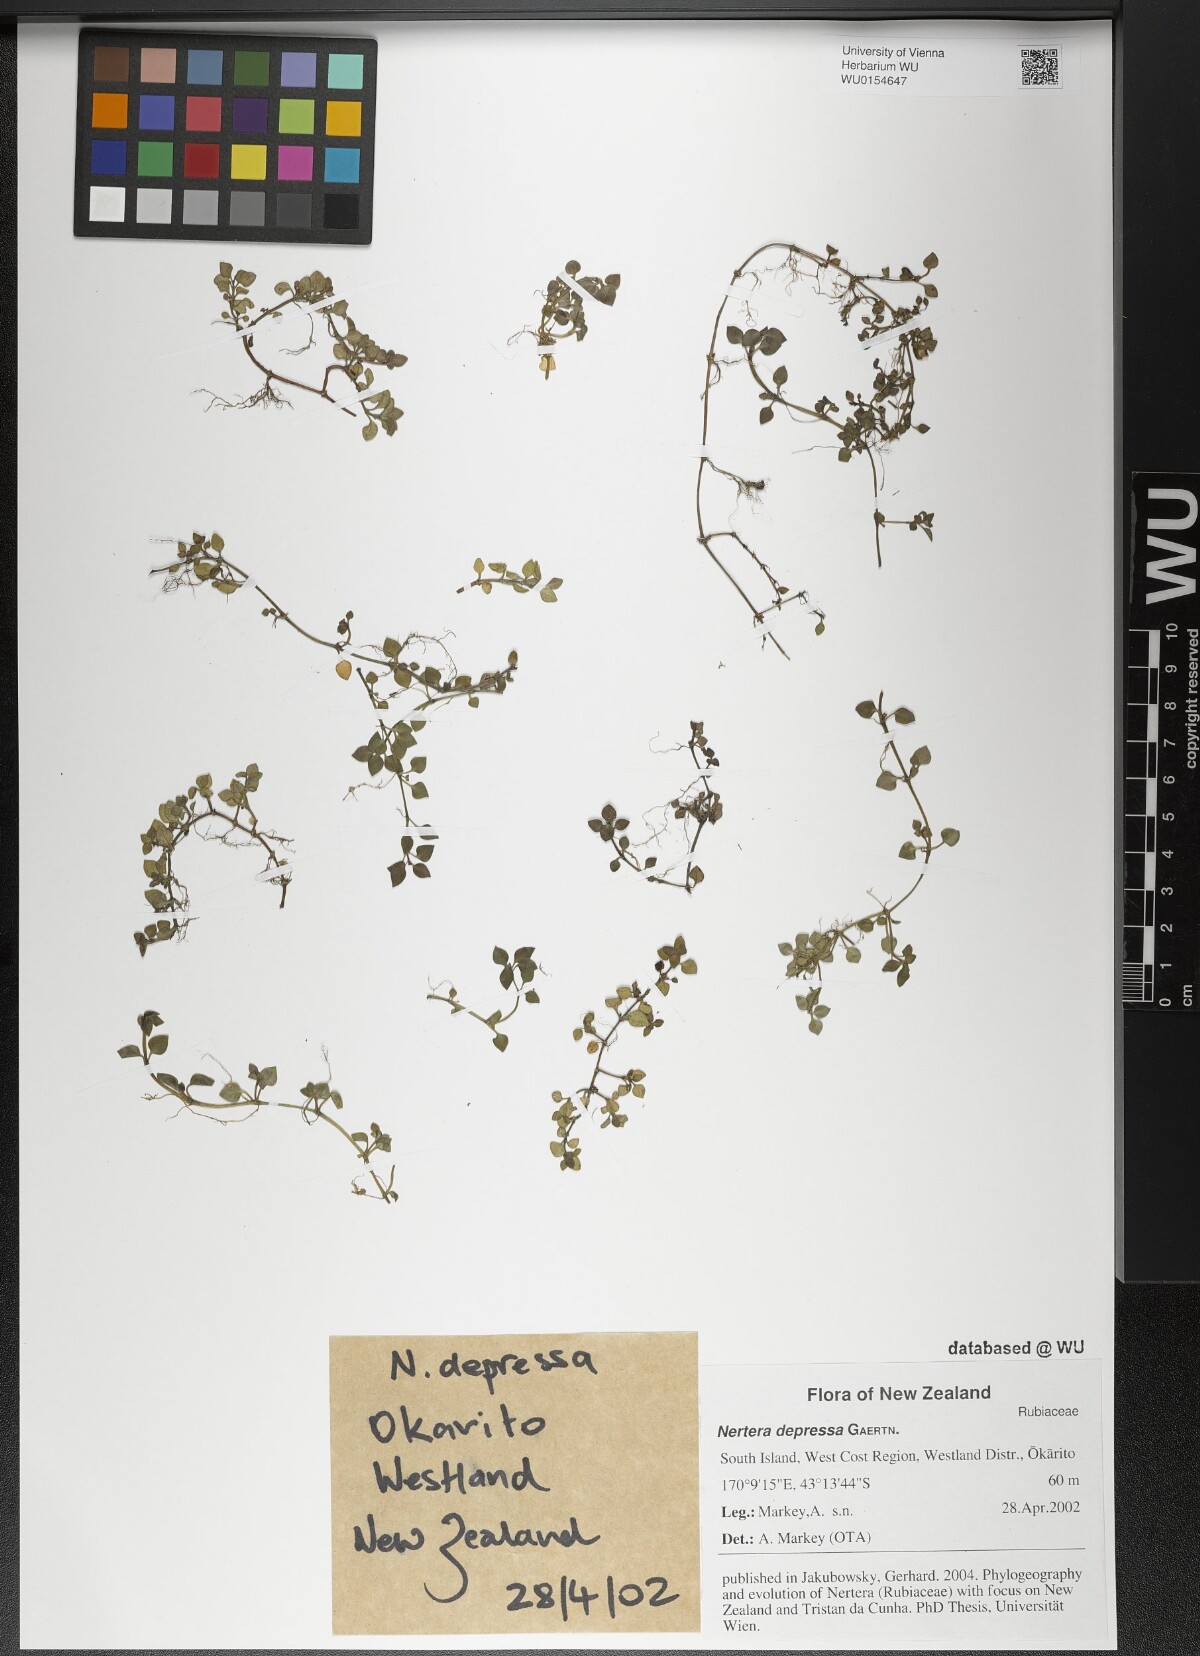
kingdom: Plantae
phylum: Tracheophyta
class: Magnoliopsida
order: Gentianales
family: Rubiaceae
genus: Nertera
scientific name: Nertera granadensis
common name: Beadplant
